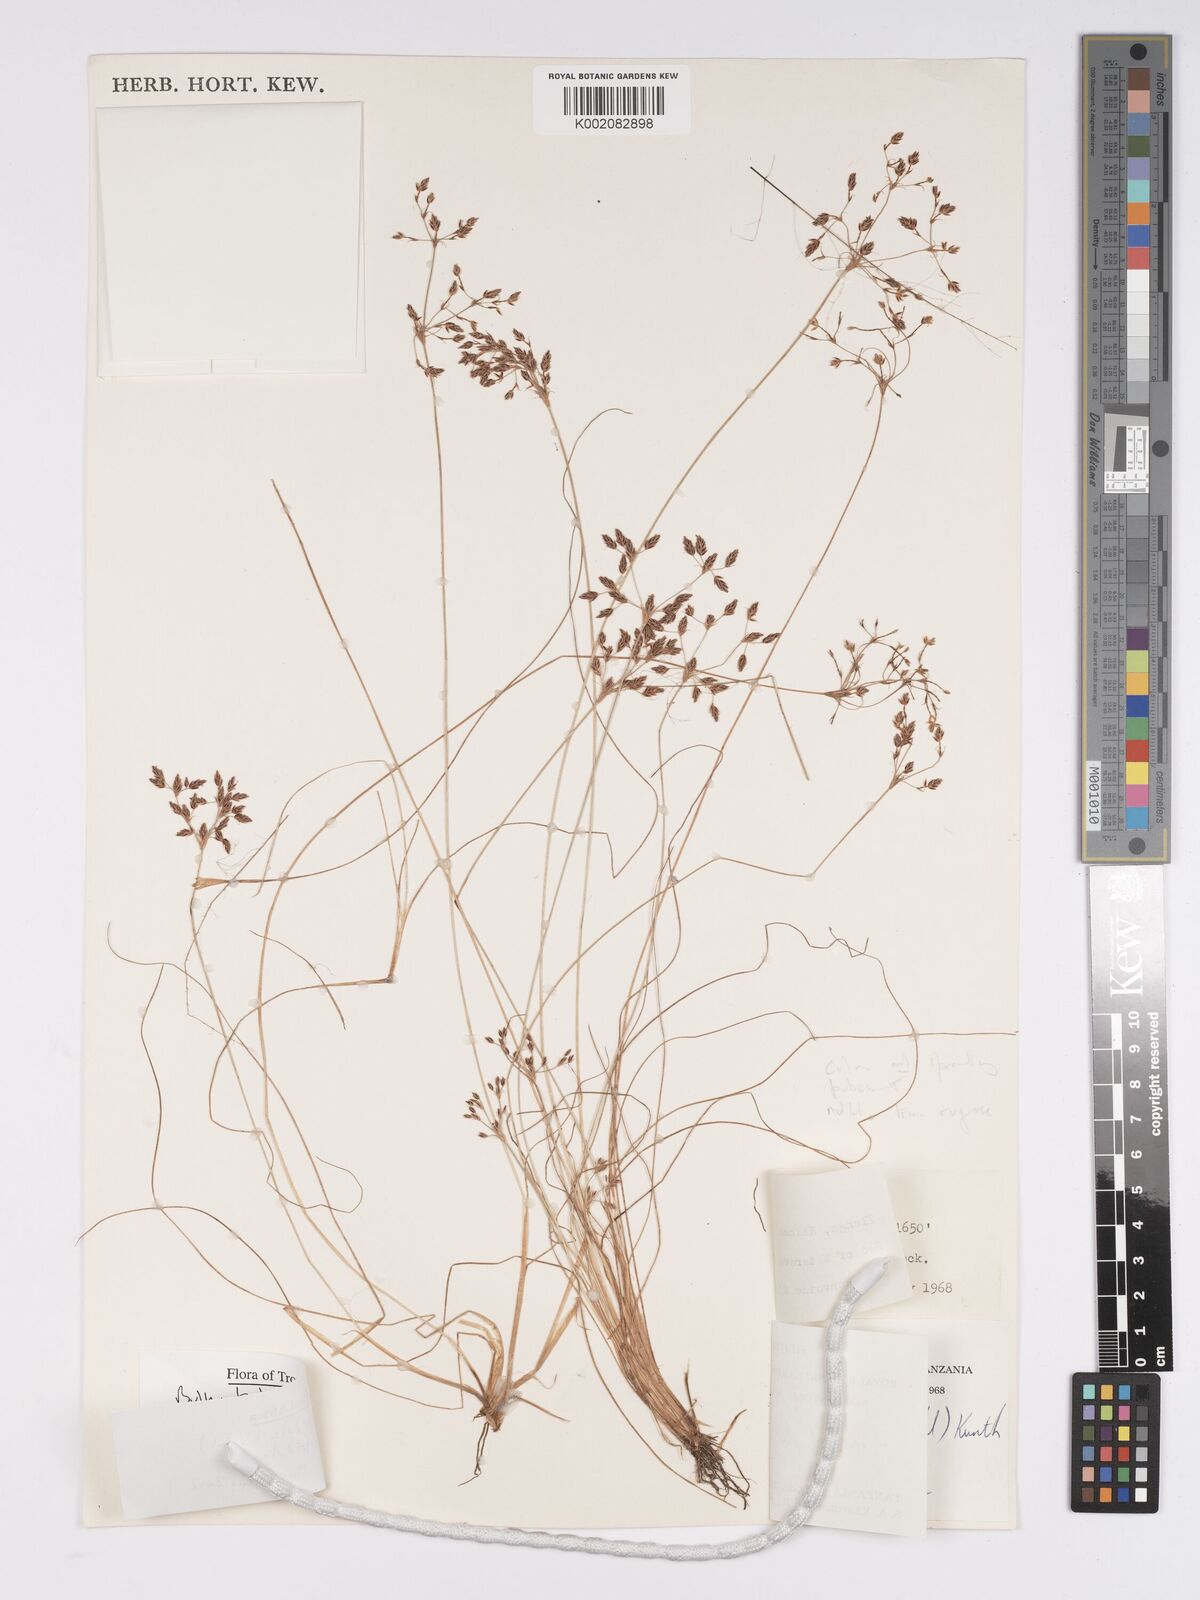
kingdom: Plantae
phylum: Tracheophyta
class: Liliopsida
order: Poales
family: Cyperaceae
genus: Bulbostylis
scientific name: Bulbostylis hispidula
